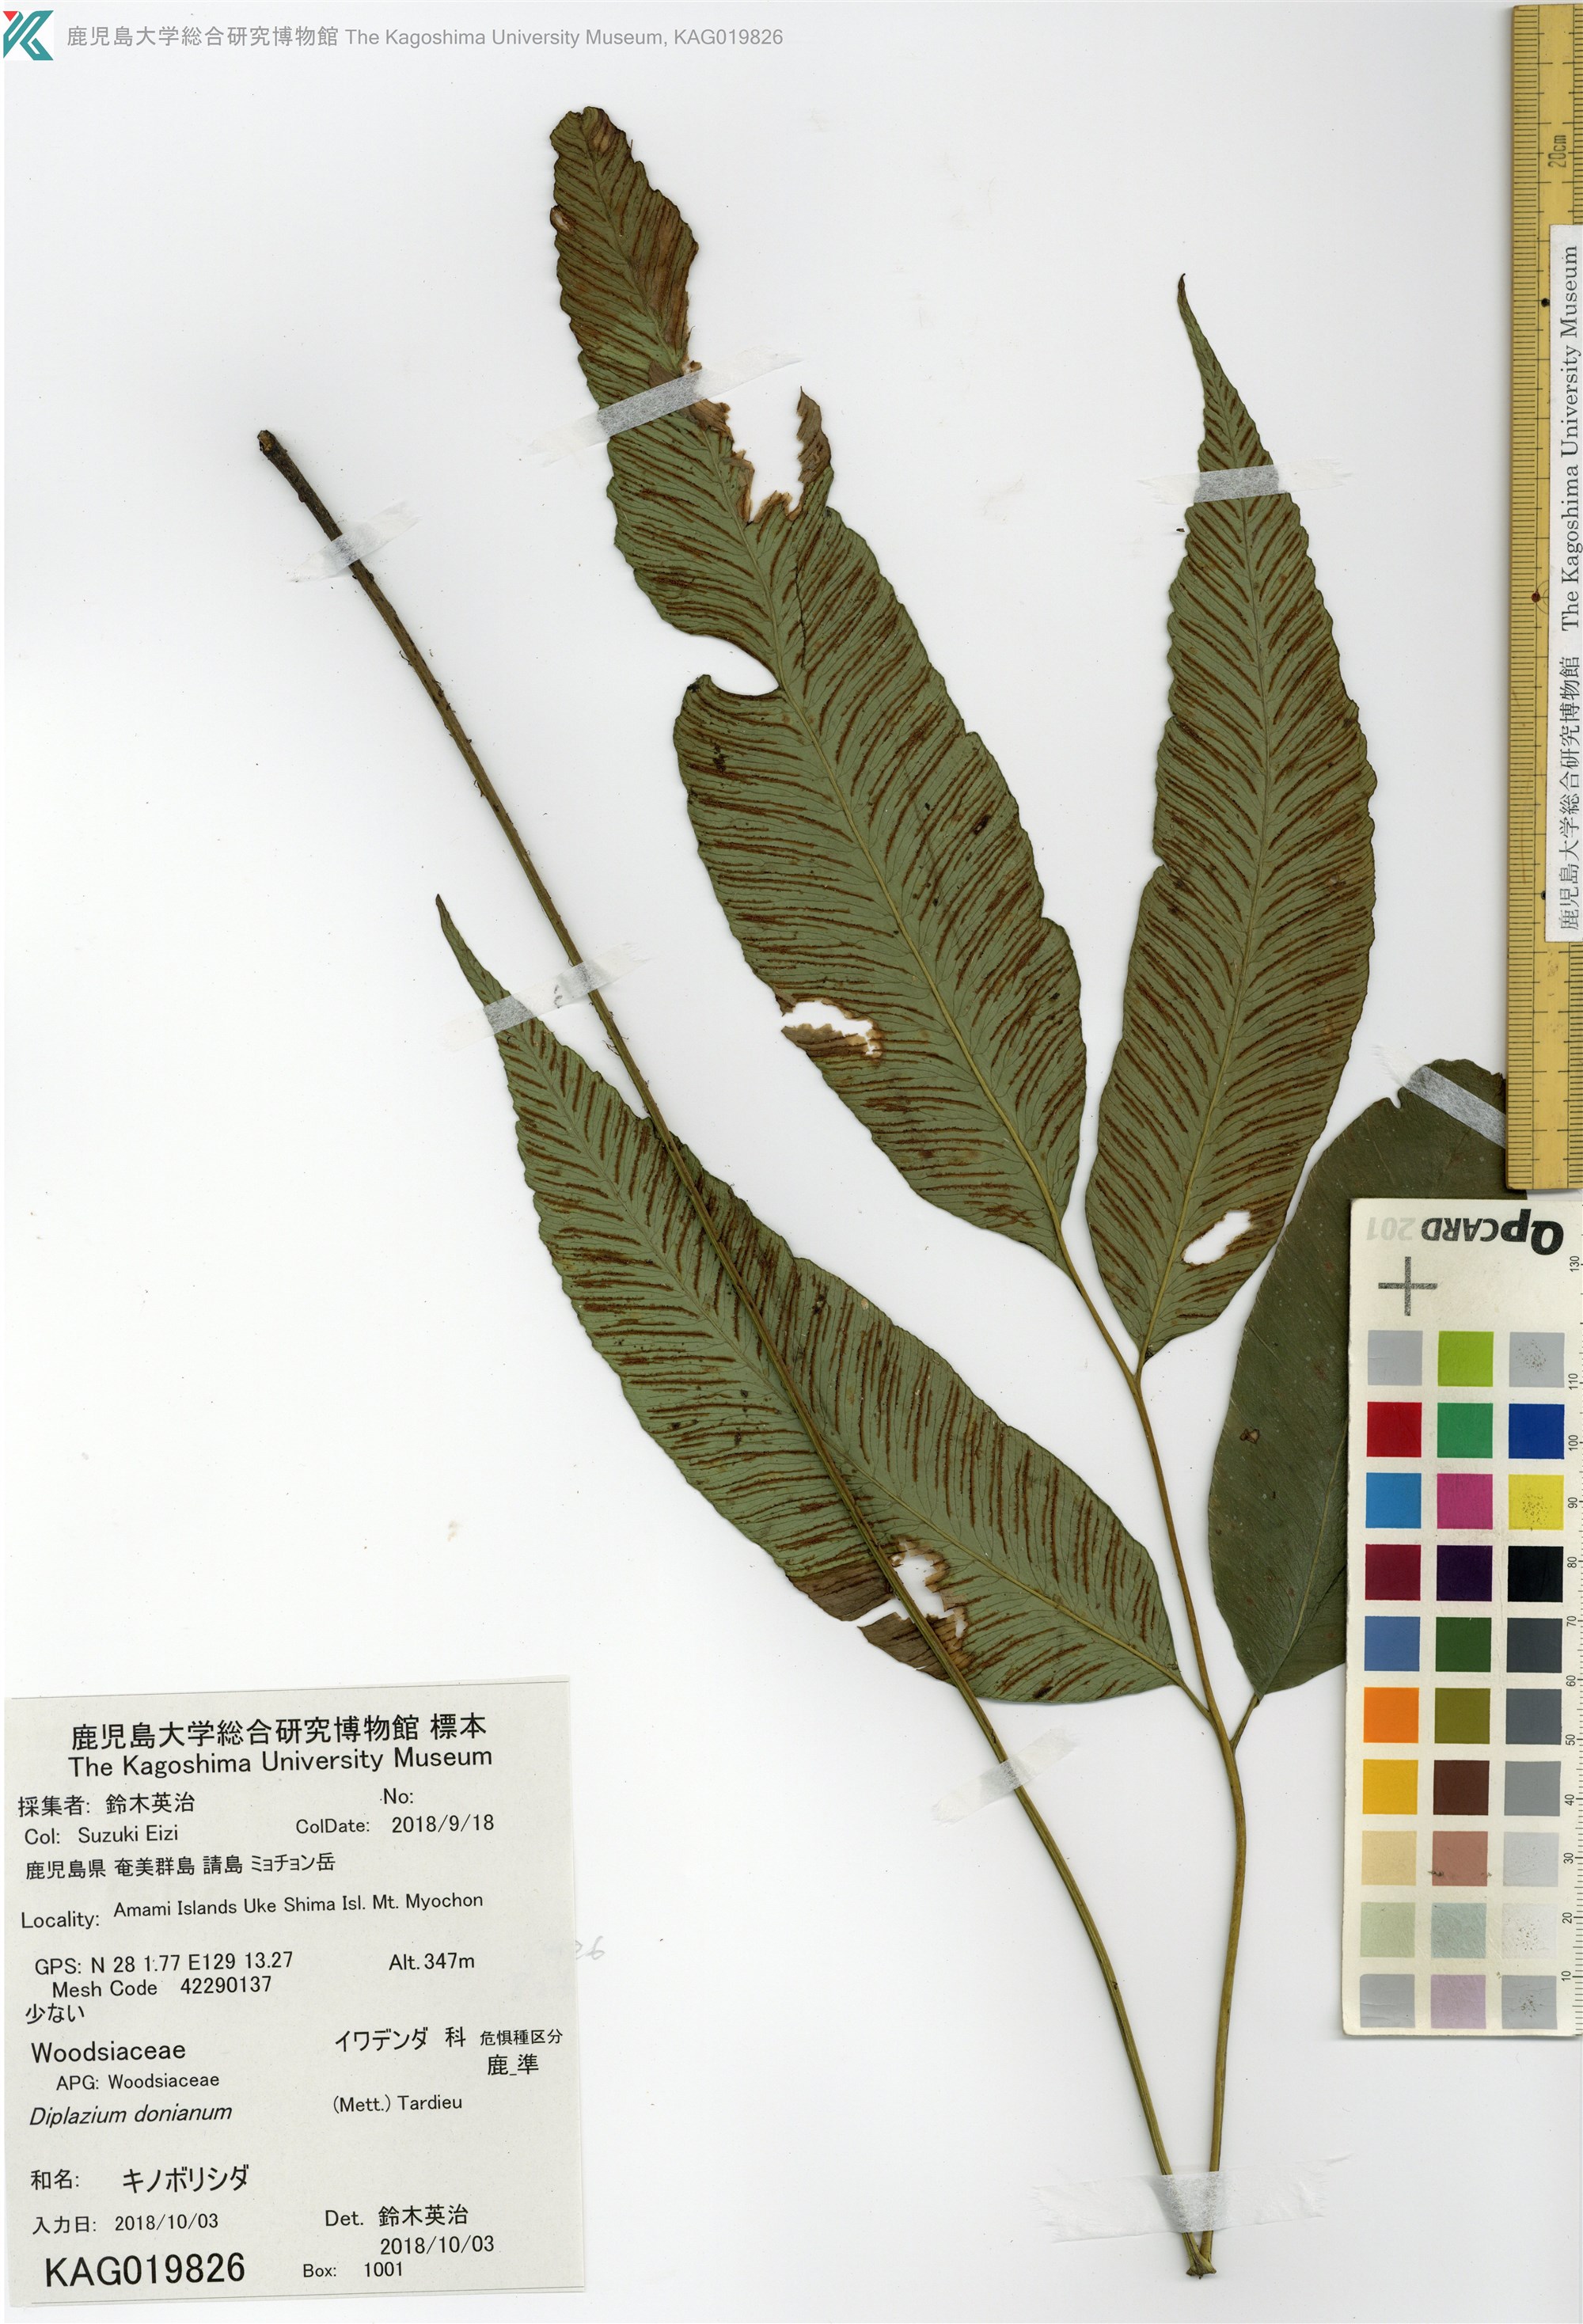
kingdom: Plantae
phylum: Tracheophyta
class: Polypodiopsida
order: Polypodiales
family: Athyriaceae
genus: Diplazium
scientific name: Diplazium lineolatum
